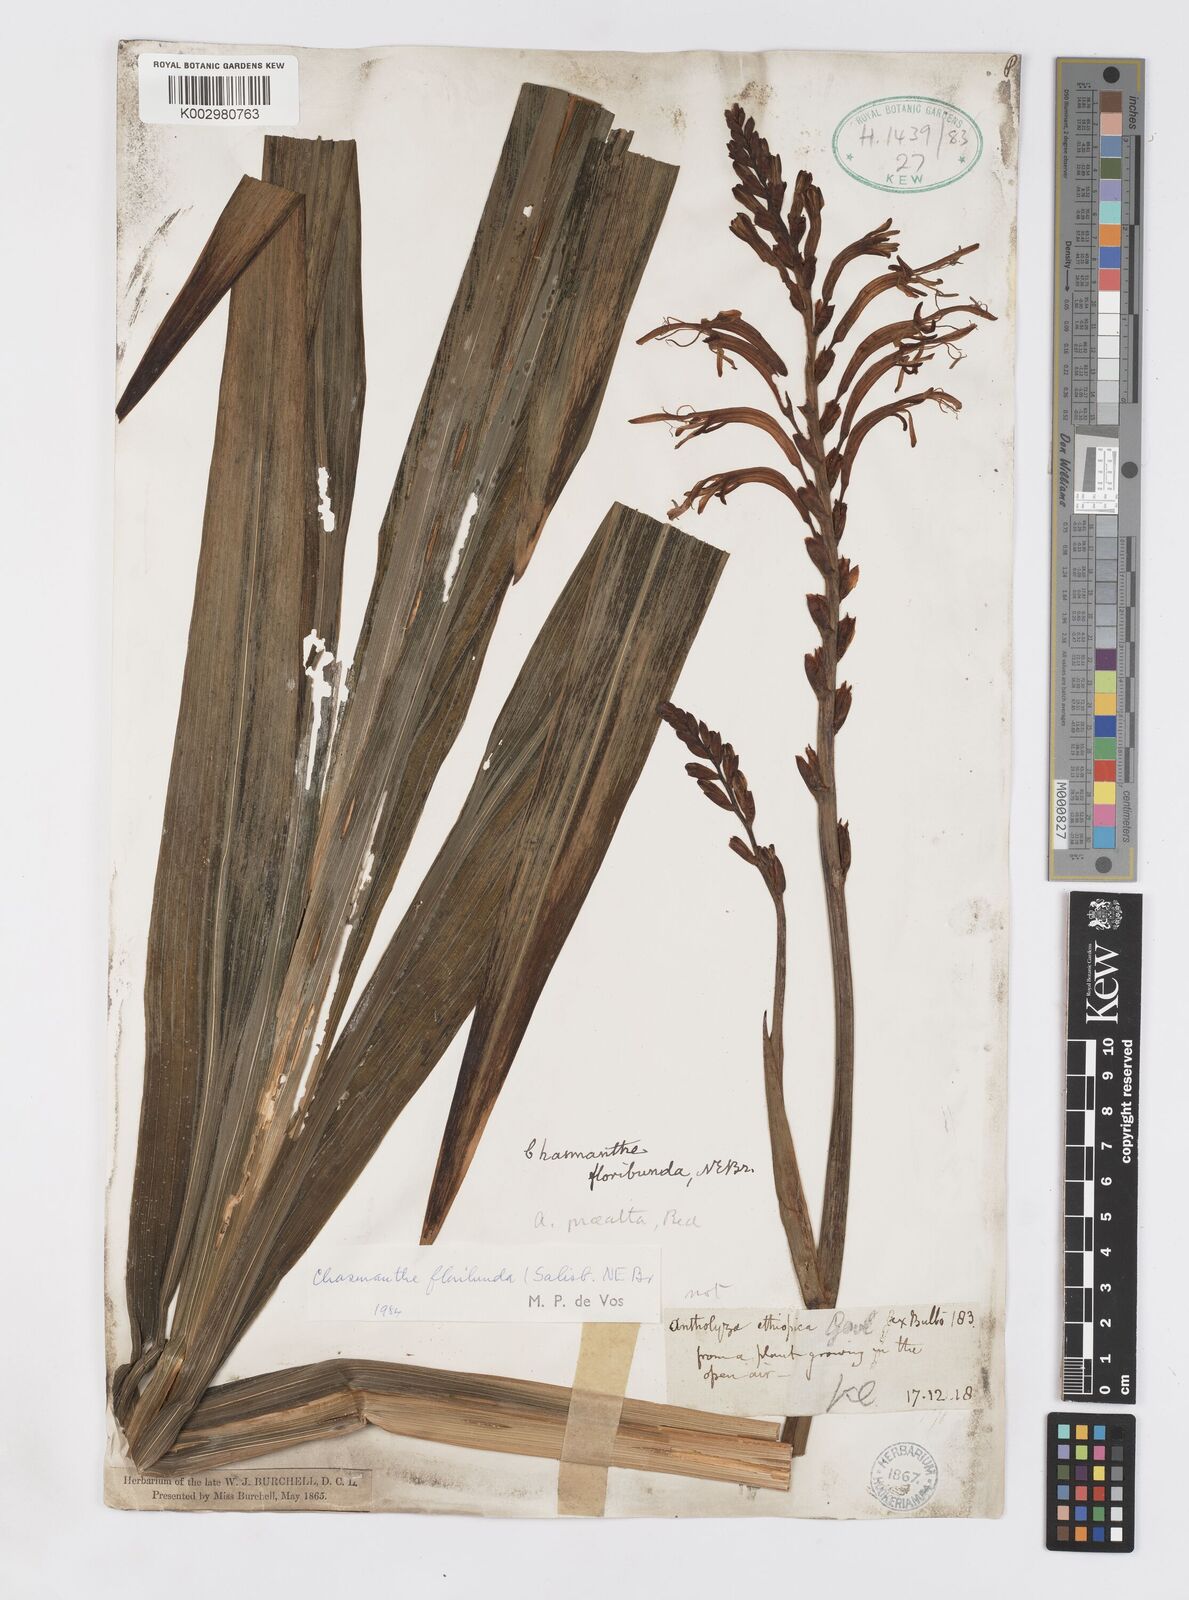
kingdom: Plantae
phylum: Tracheophyta
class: Liliopsida
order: Asparagales
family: Iridaceae
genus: Chasmanthe
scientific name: Chasmanthe floribunda
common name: African cornflag
